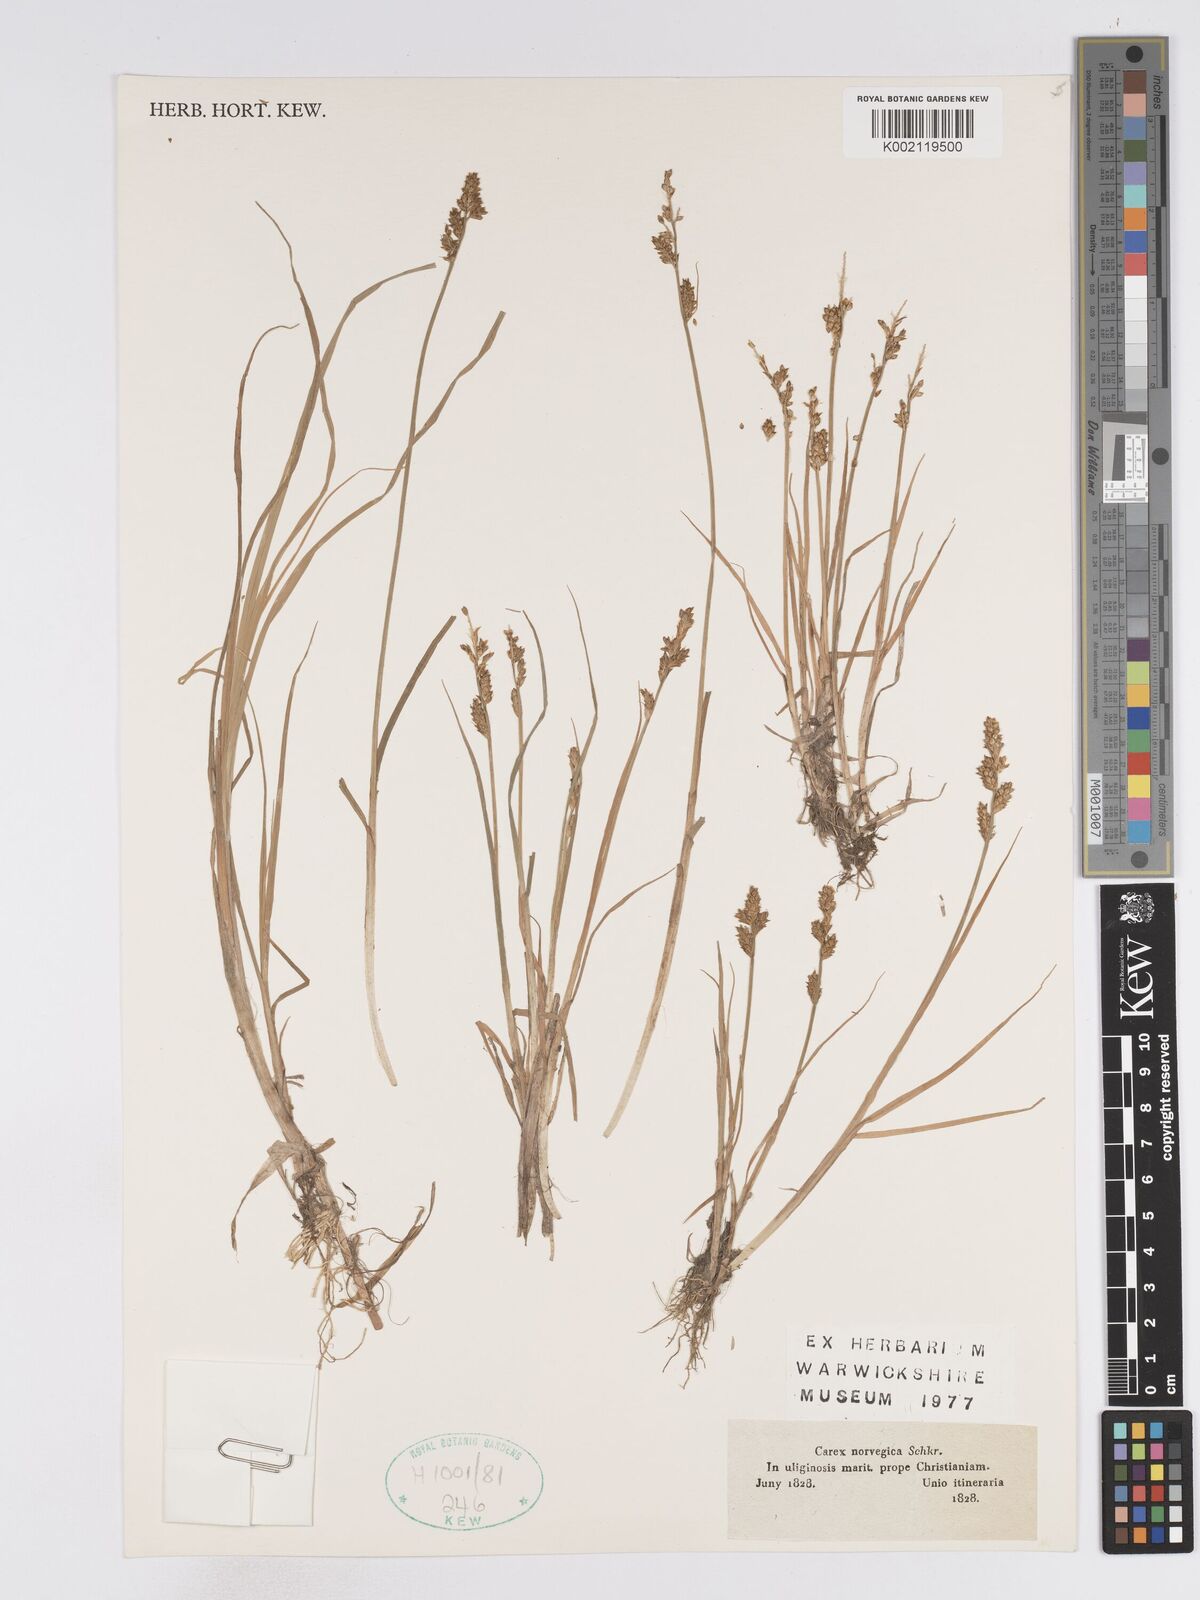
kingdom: Plantae
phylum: Tracheophyta
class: Liliopsida
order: Poales
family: Cyperaceae
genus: Carex
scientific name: Carex mackenziei
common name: Mackenzie's sedge
